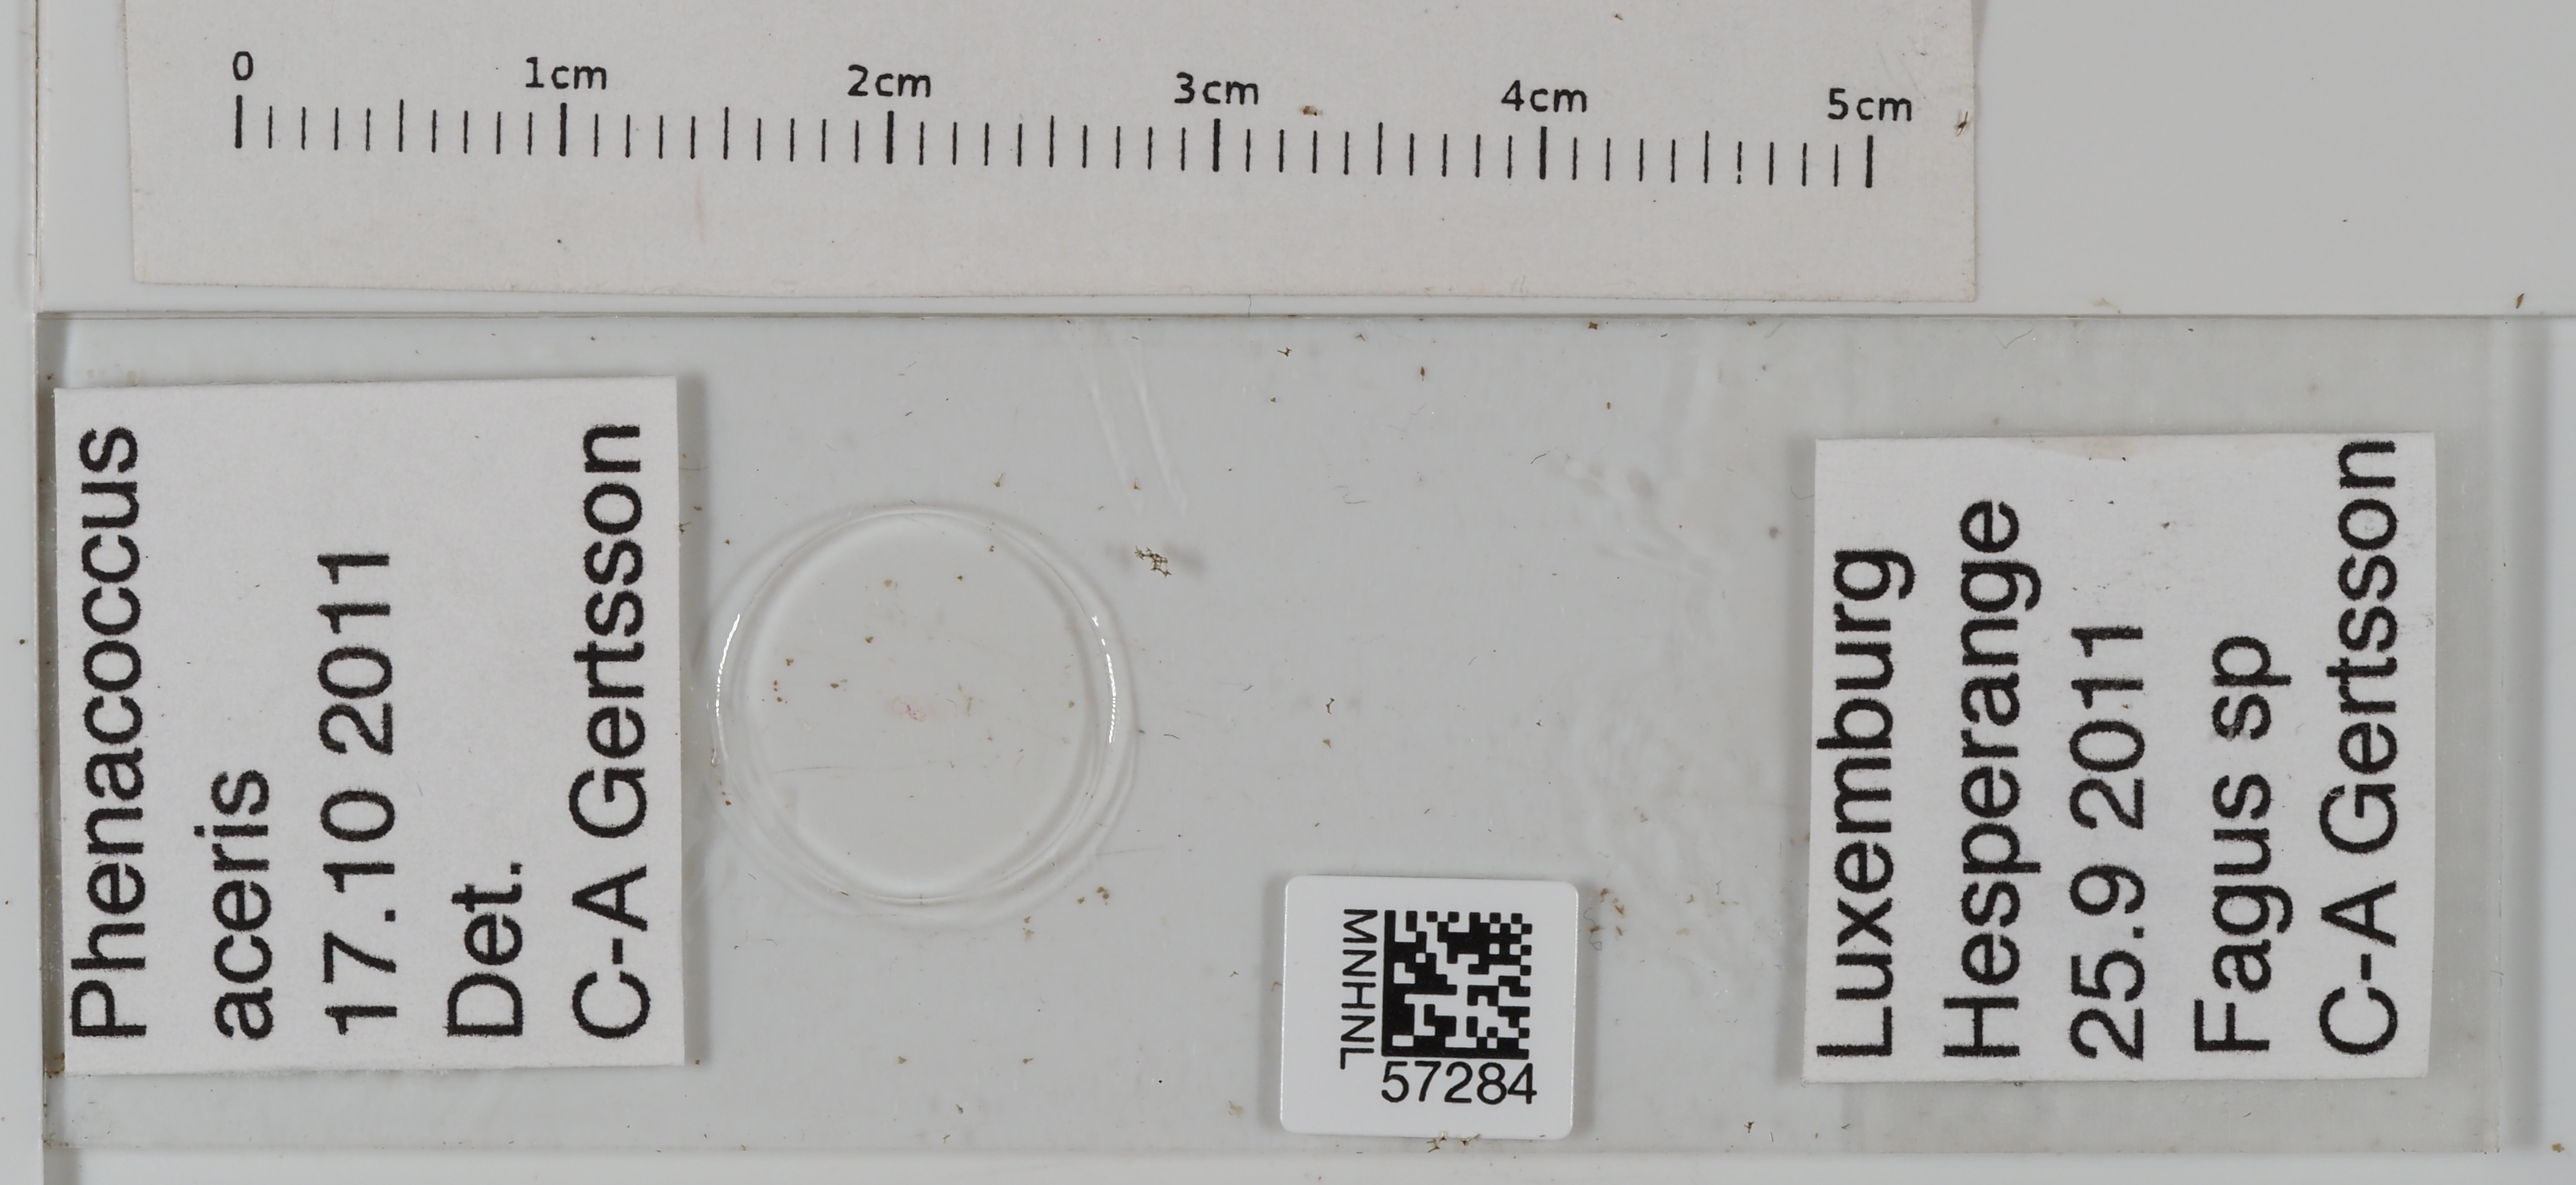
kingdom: Animalia
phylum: Arthropoda
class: Insecta
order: Hemiptera
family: Pseudococcidae
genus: Phenacoccus
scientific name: Phenacoccus aceris
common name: Apple mealybug
